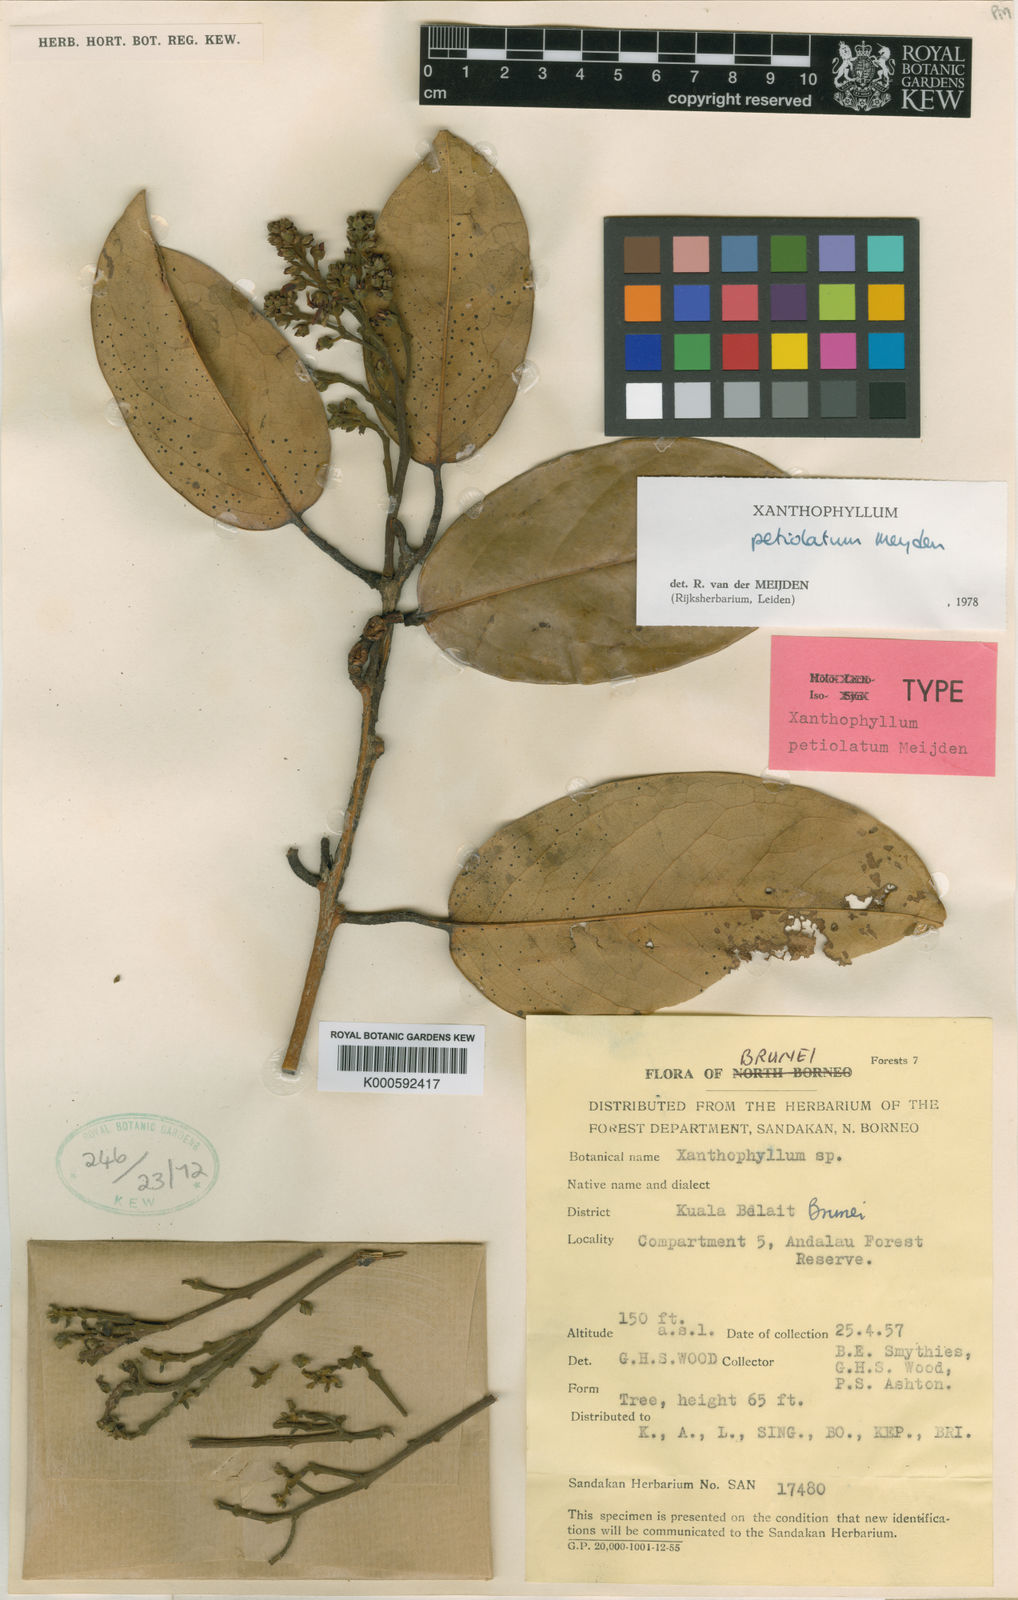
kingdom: Plantae
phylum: Tracheophyta
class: Magnoliopsida
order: Fabales
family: Polygalaceae
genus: Xanthophyllum
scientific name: Xanthophyllum petiolatum
